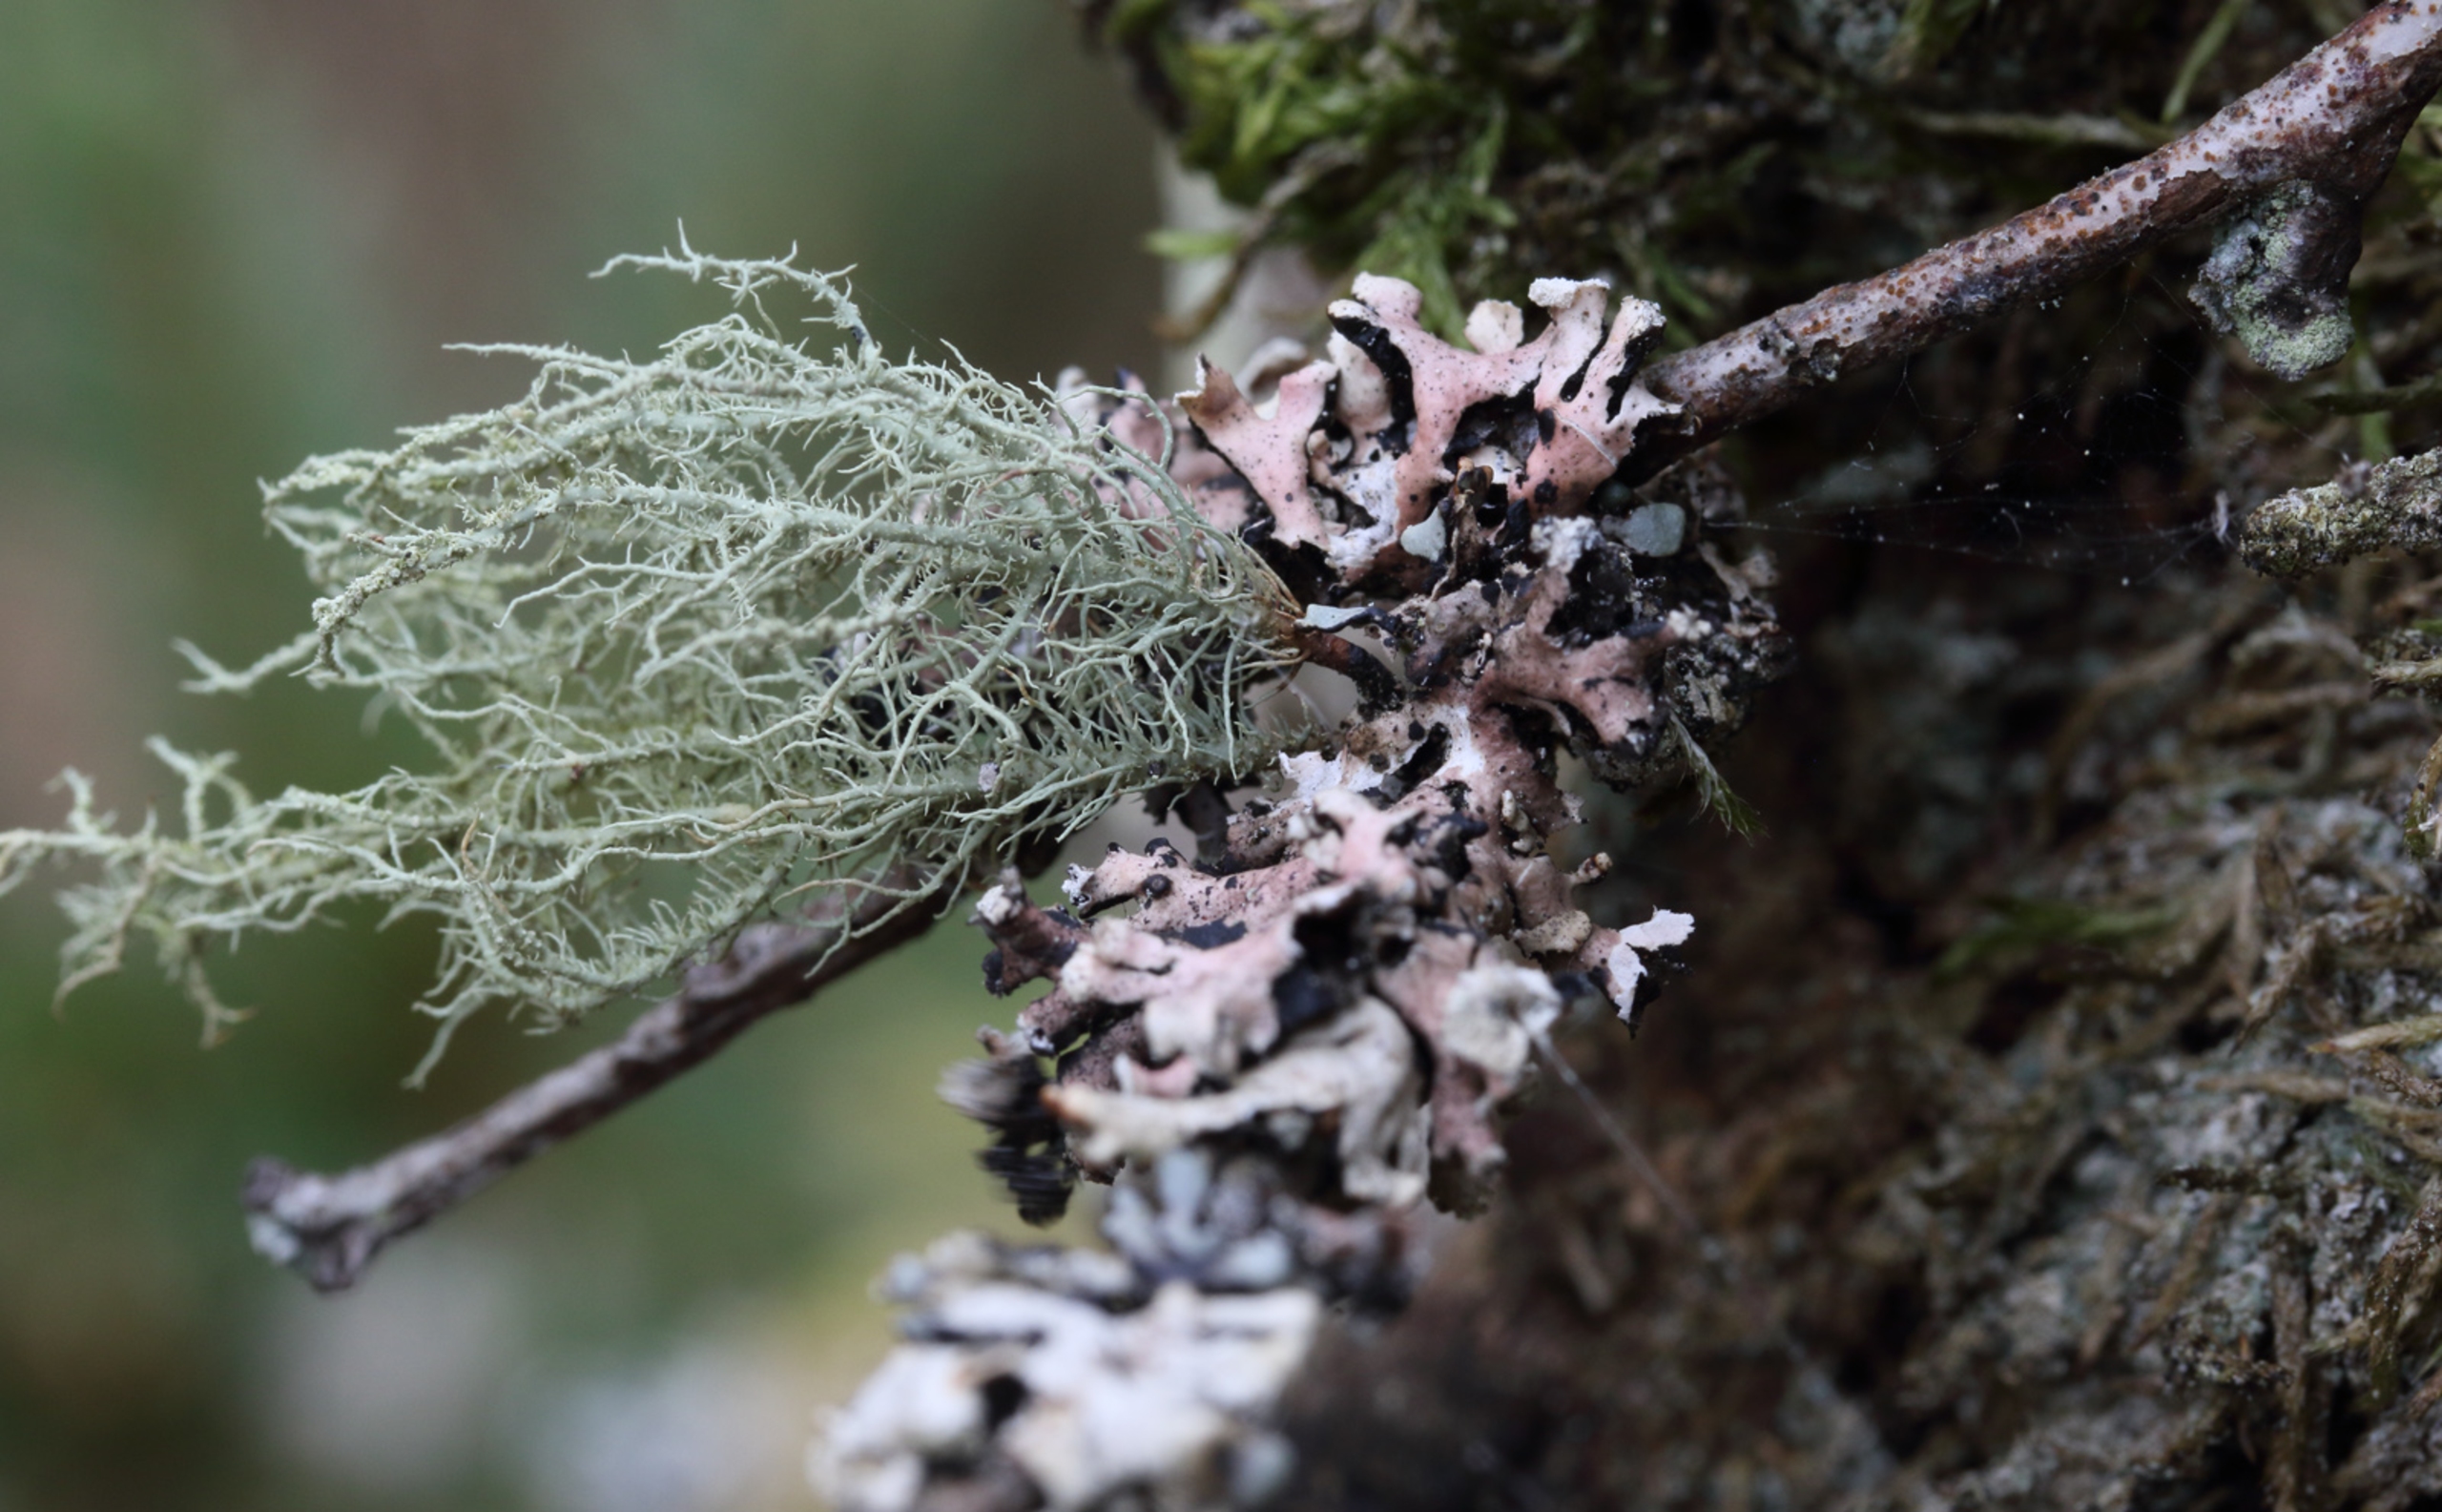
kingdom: Fungi
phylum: Ascomycota
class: Lecanoromycetes
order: Lecanorales
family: Parmeliaceae
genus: Usnea
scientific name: Usnea
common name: Skæglav
